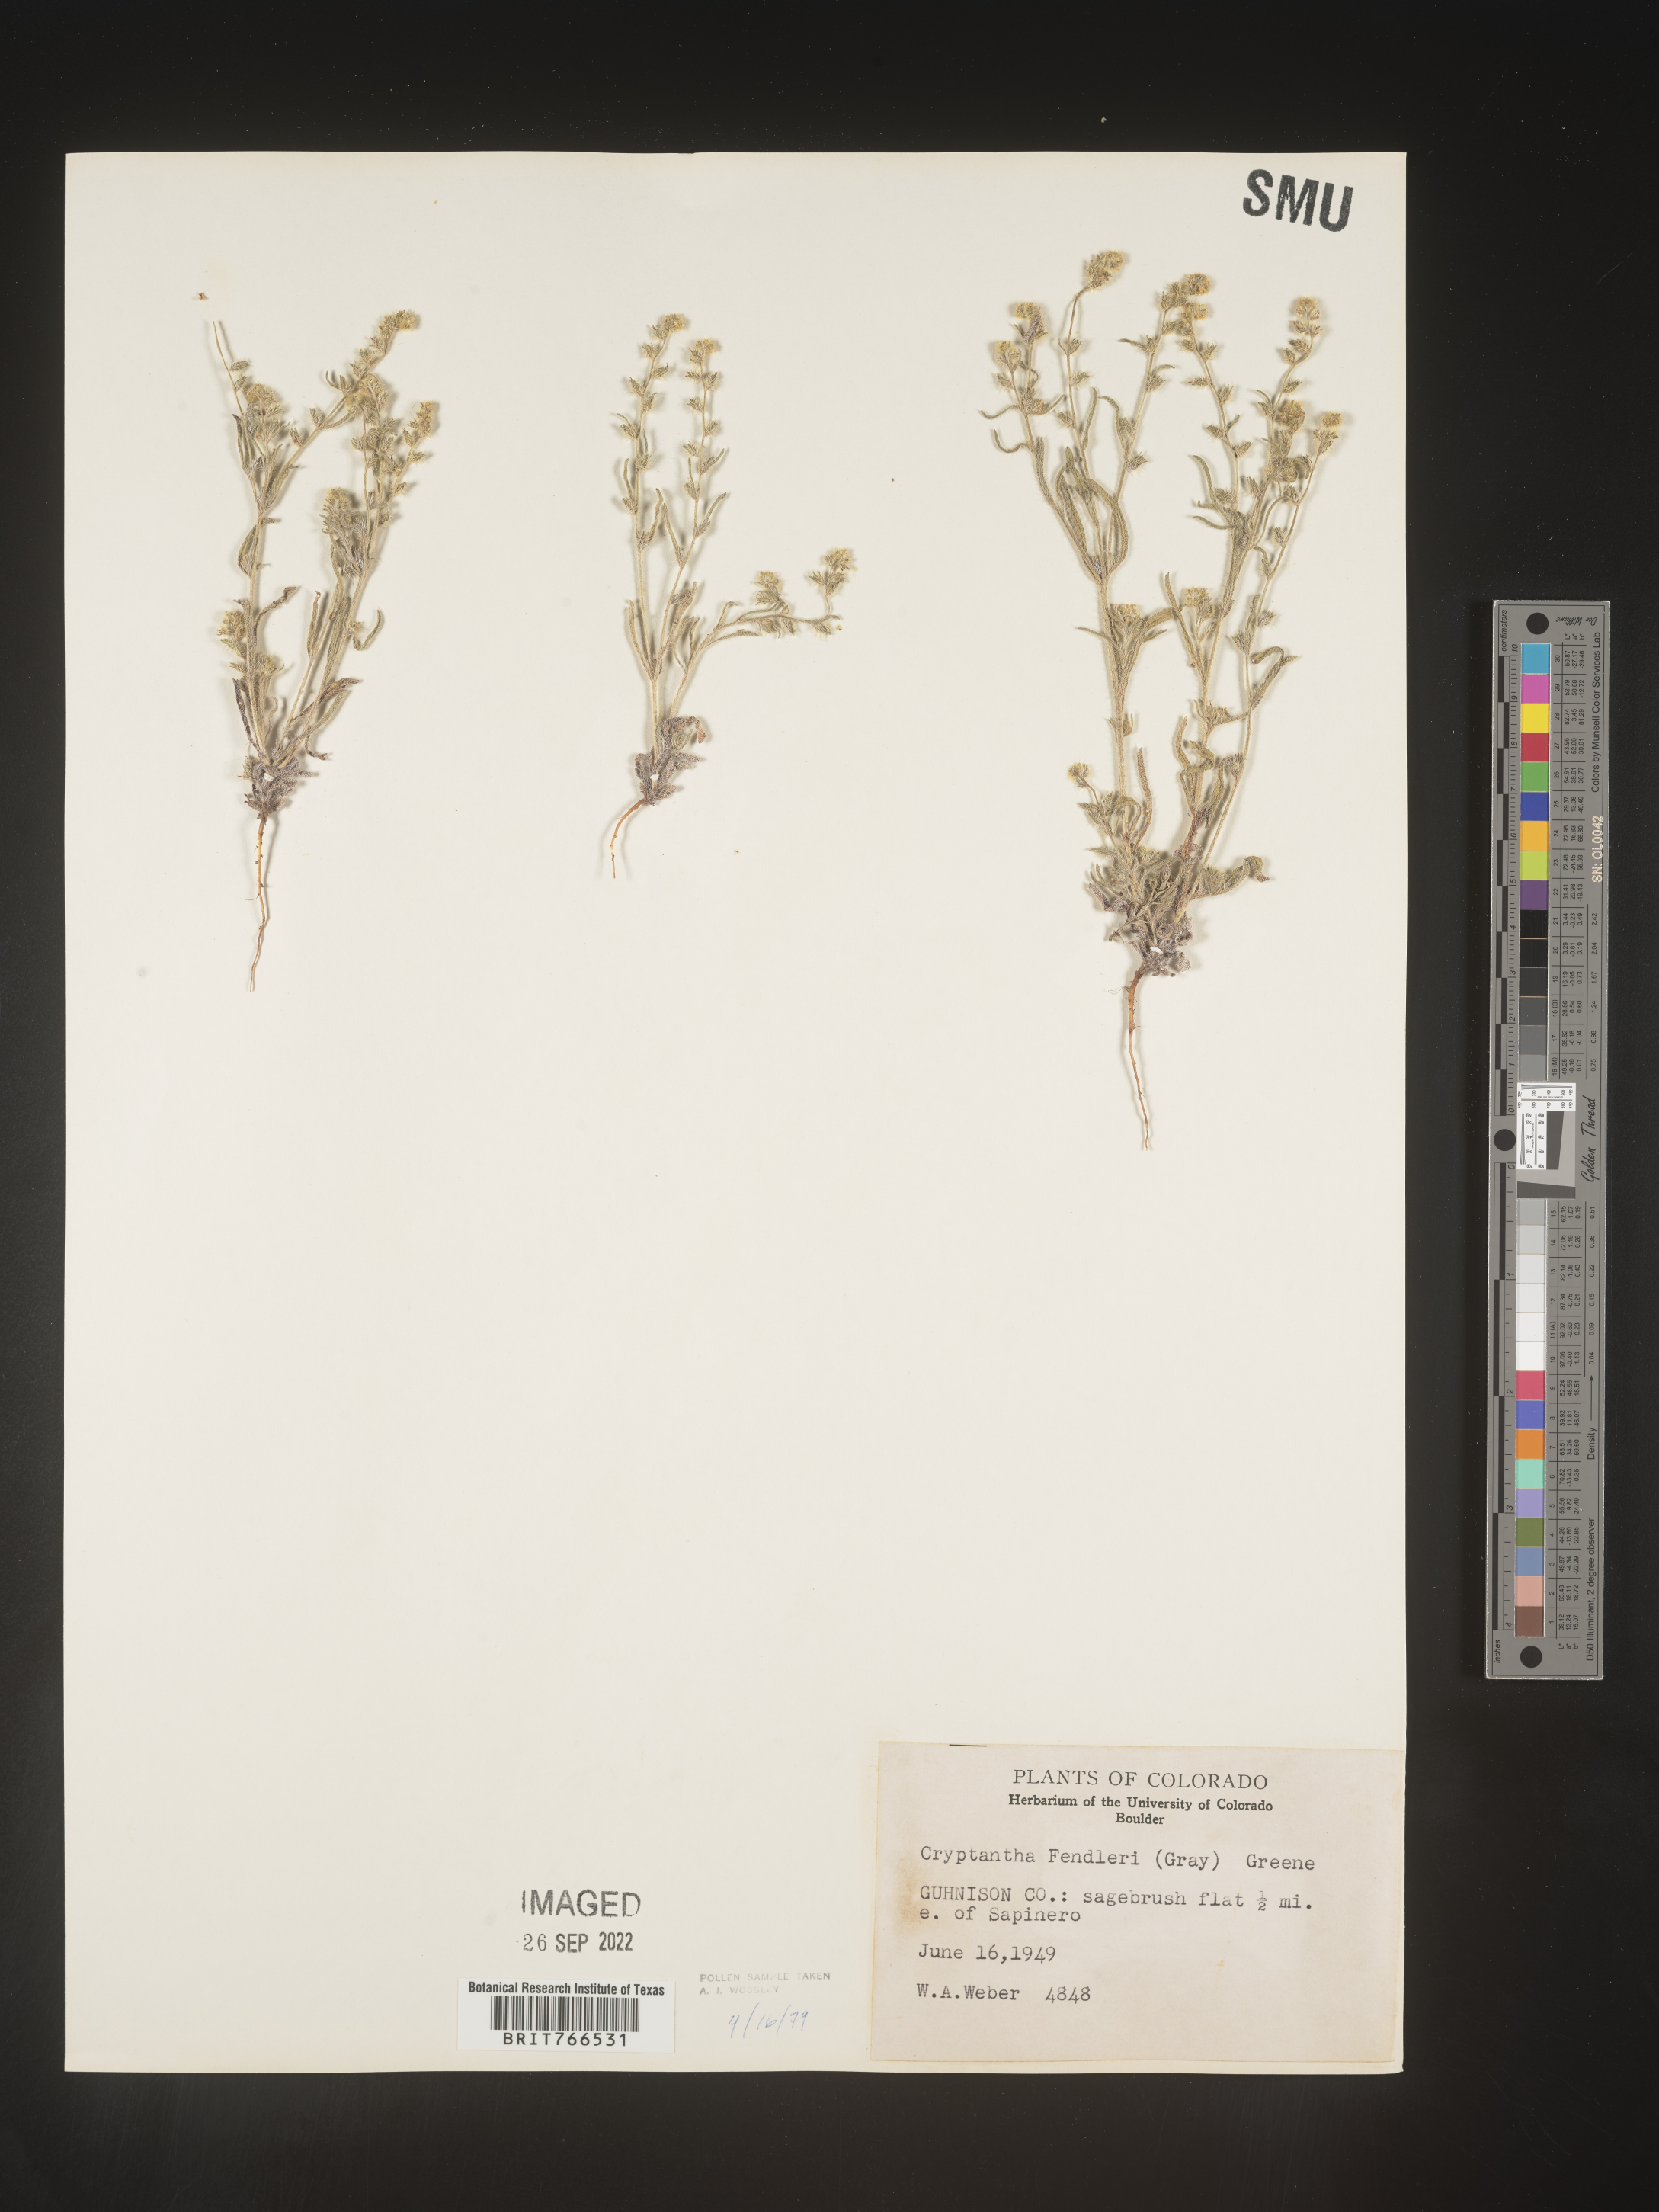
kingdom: Plantae
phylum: Tracheophyta
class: Magnoliopsida
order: Boraginales
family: Boraginaceae
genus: Cryptantha
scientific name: Cryptantha fendleri
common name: Sand-dune cryptantha
